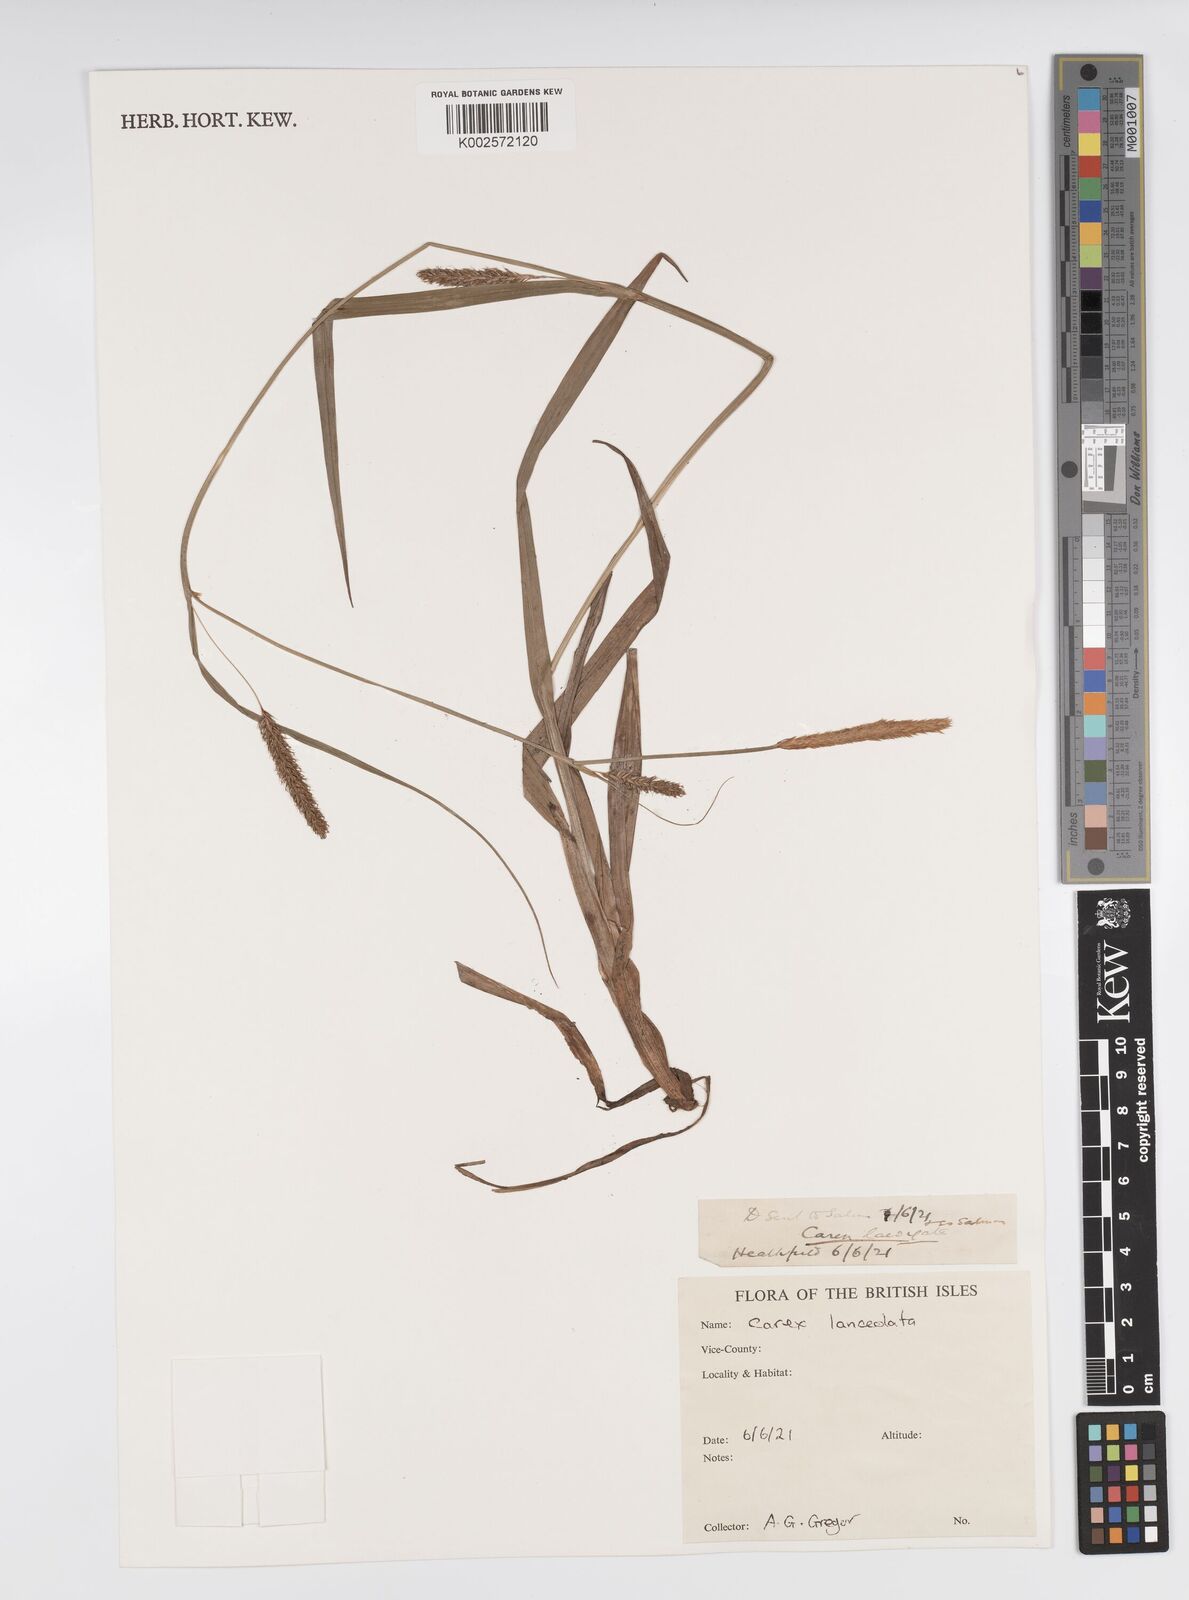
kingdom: Plantae
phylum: Tracheophyta
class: Liliopsida
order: Poales
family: Cyperaceae
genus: Carex
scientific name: Carex lanceolata
